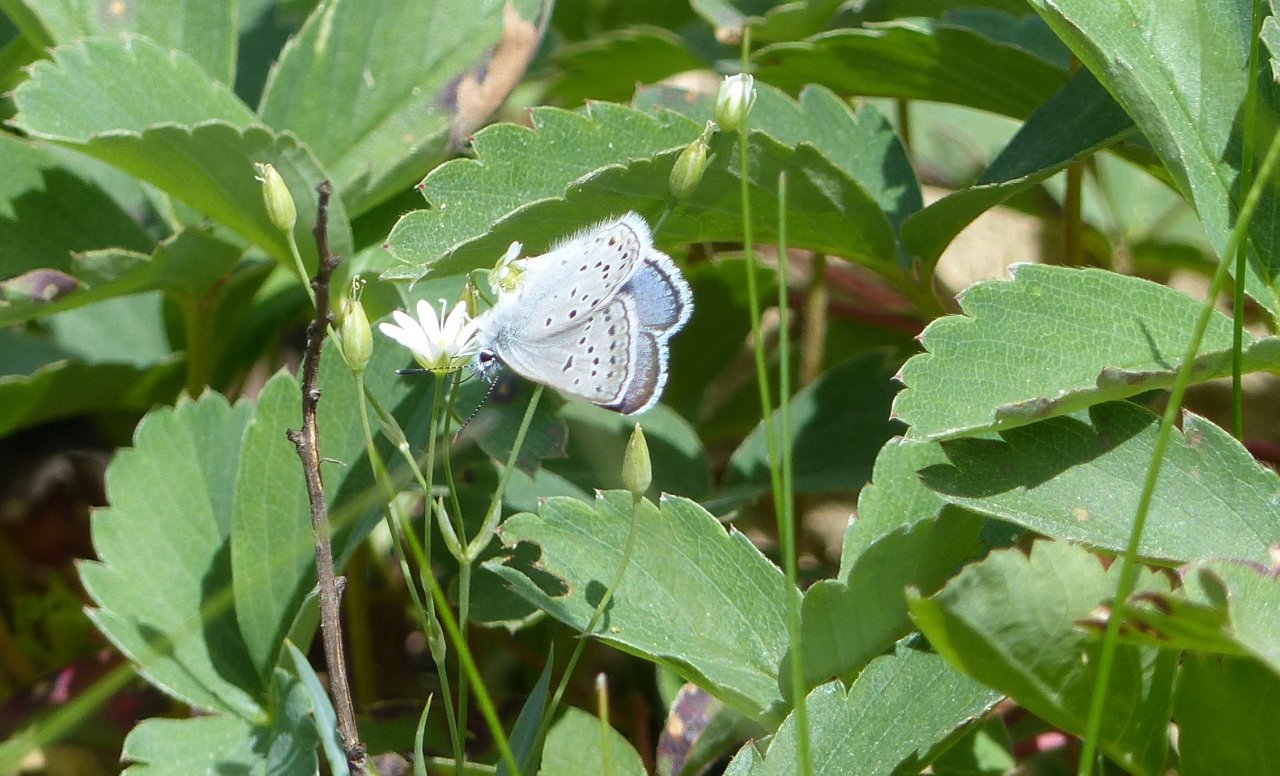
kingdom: Animalia
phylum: Arthropoda
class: Insecta
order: Lepidoptera
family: Lycaenidae
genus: Plebejus
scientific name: Plebejus saepiolus
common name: Greenish Blue
